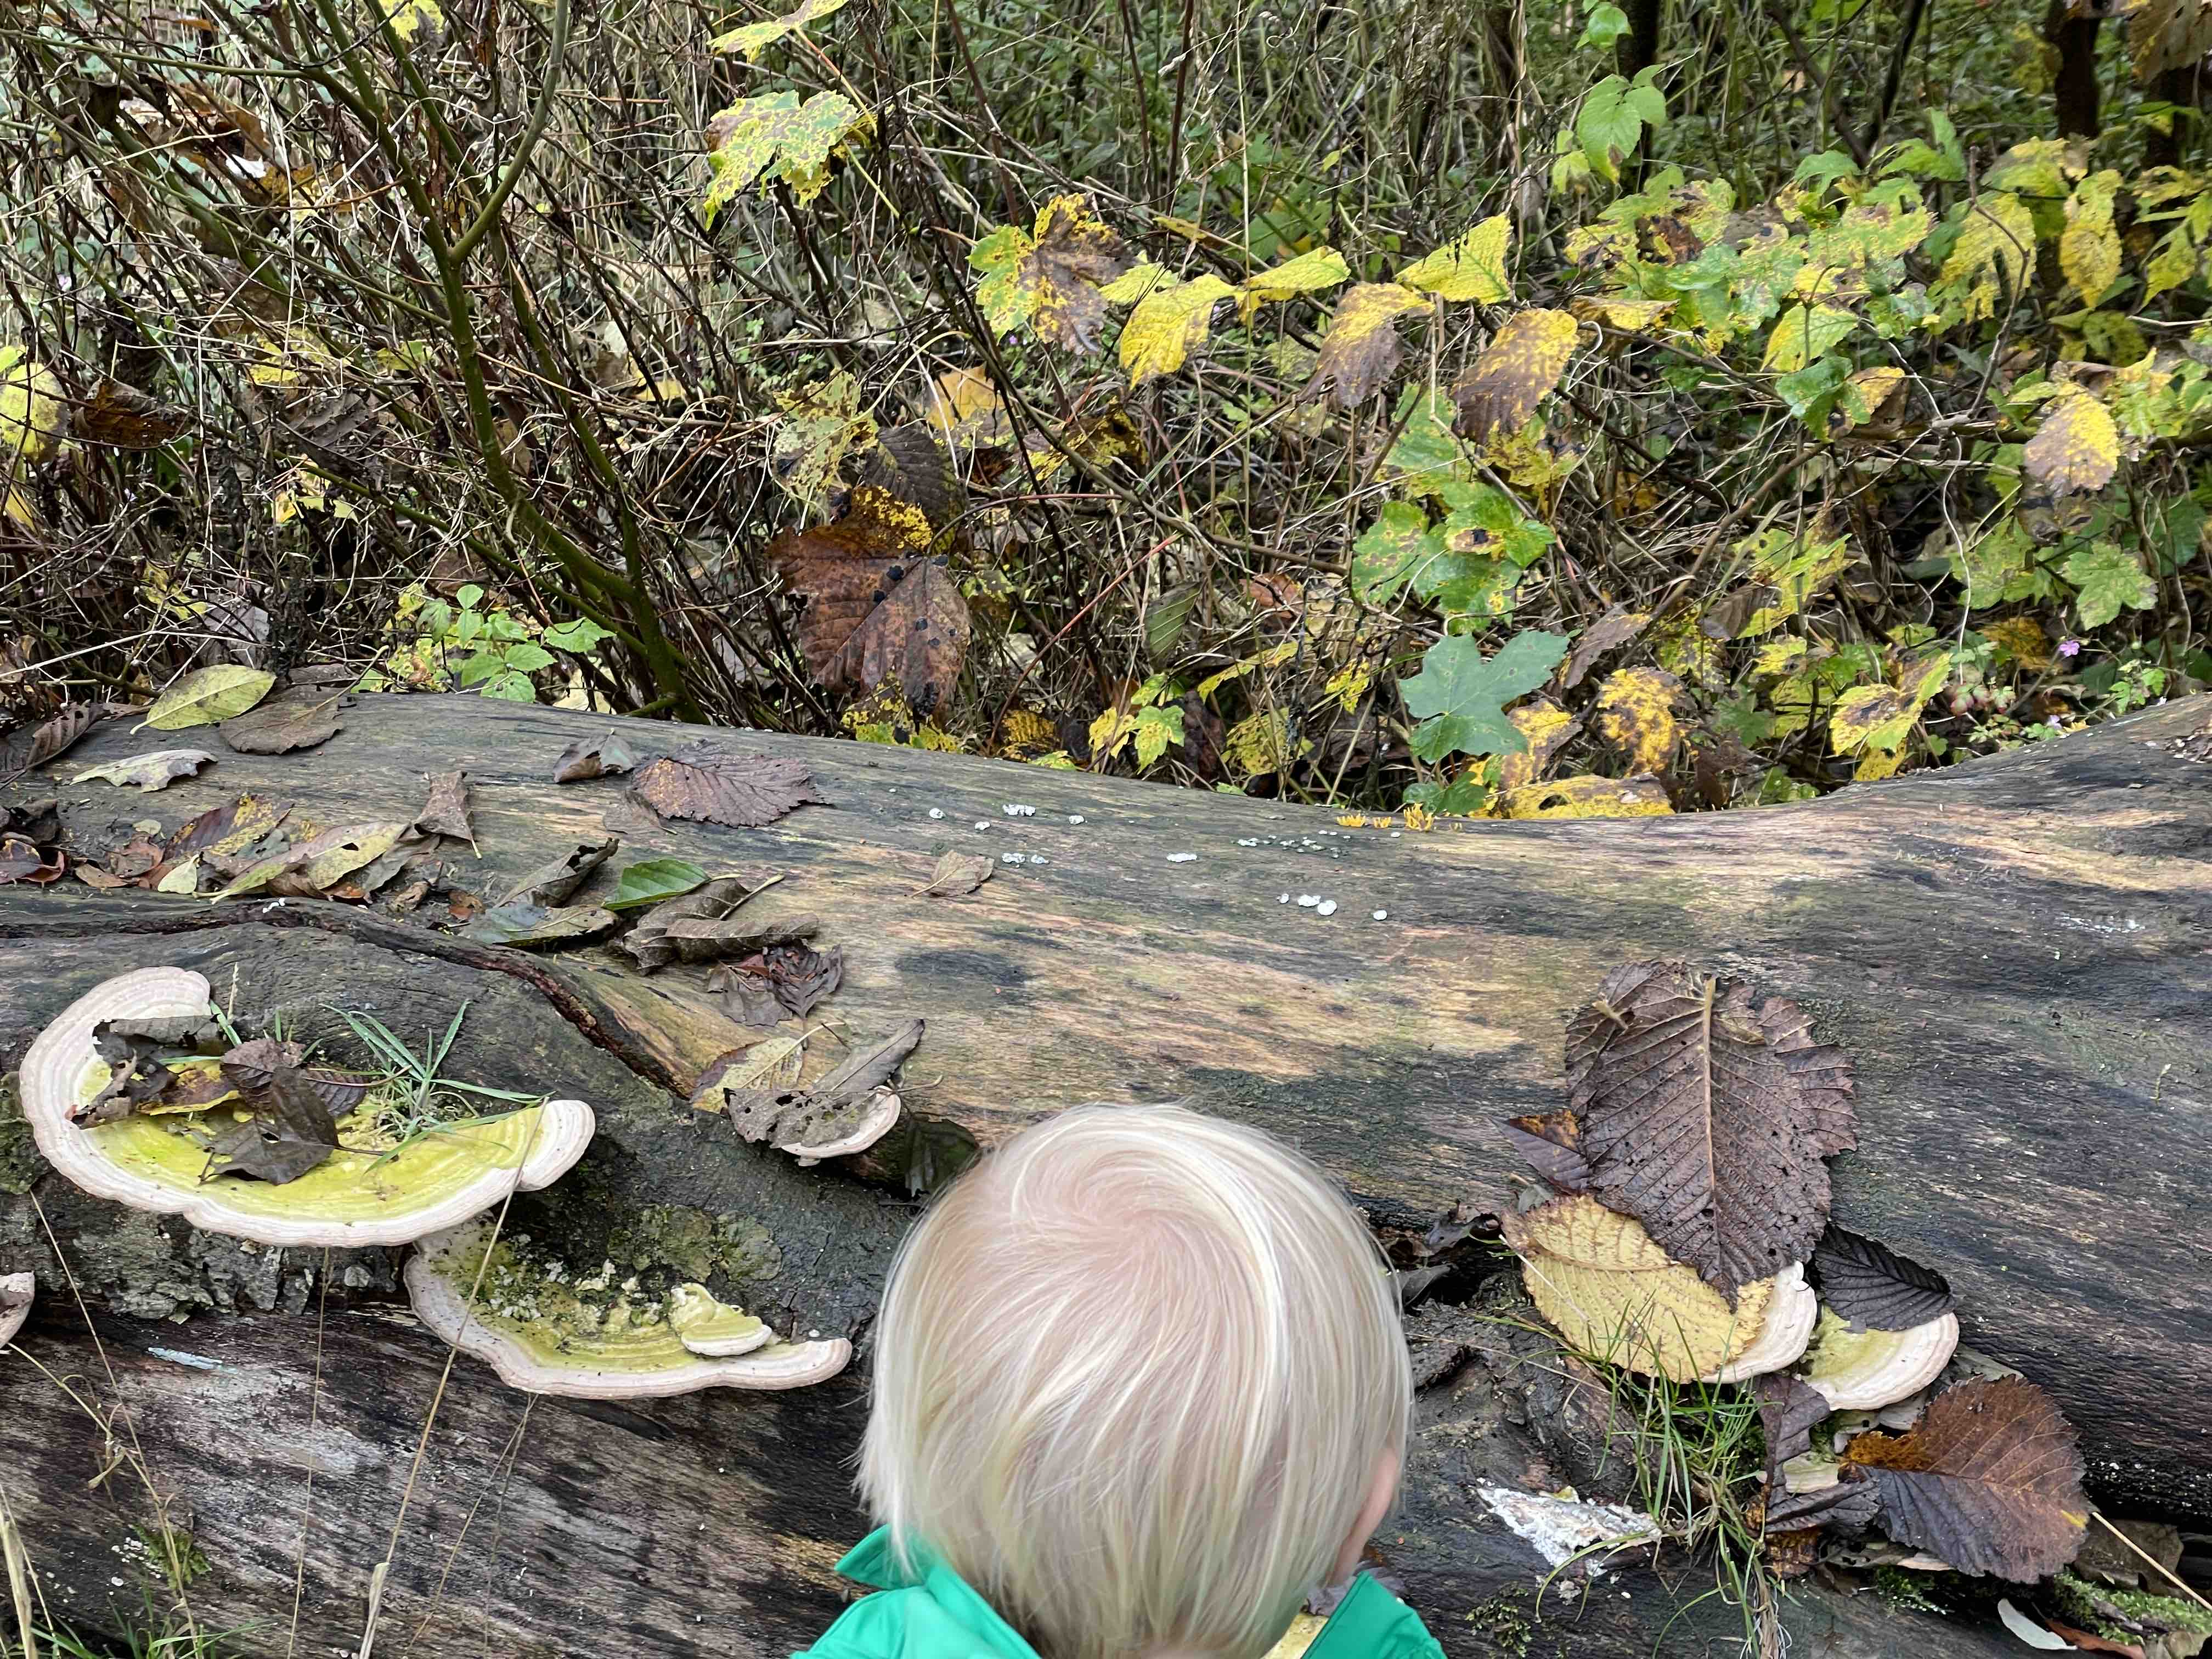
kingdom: Fungi
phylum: Basidiomycota
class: Agaricomycetes
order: Polyporales
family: Polyporaceae
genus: Trametes
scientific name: Trametes gibbosa
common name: puklet læderporesvamp
